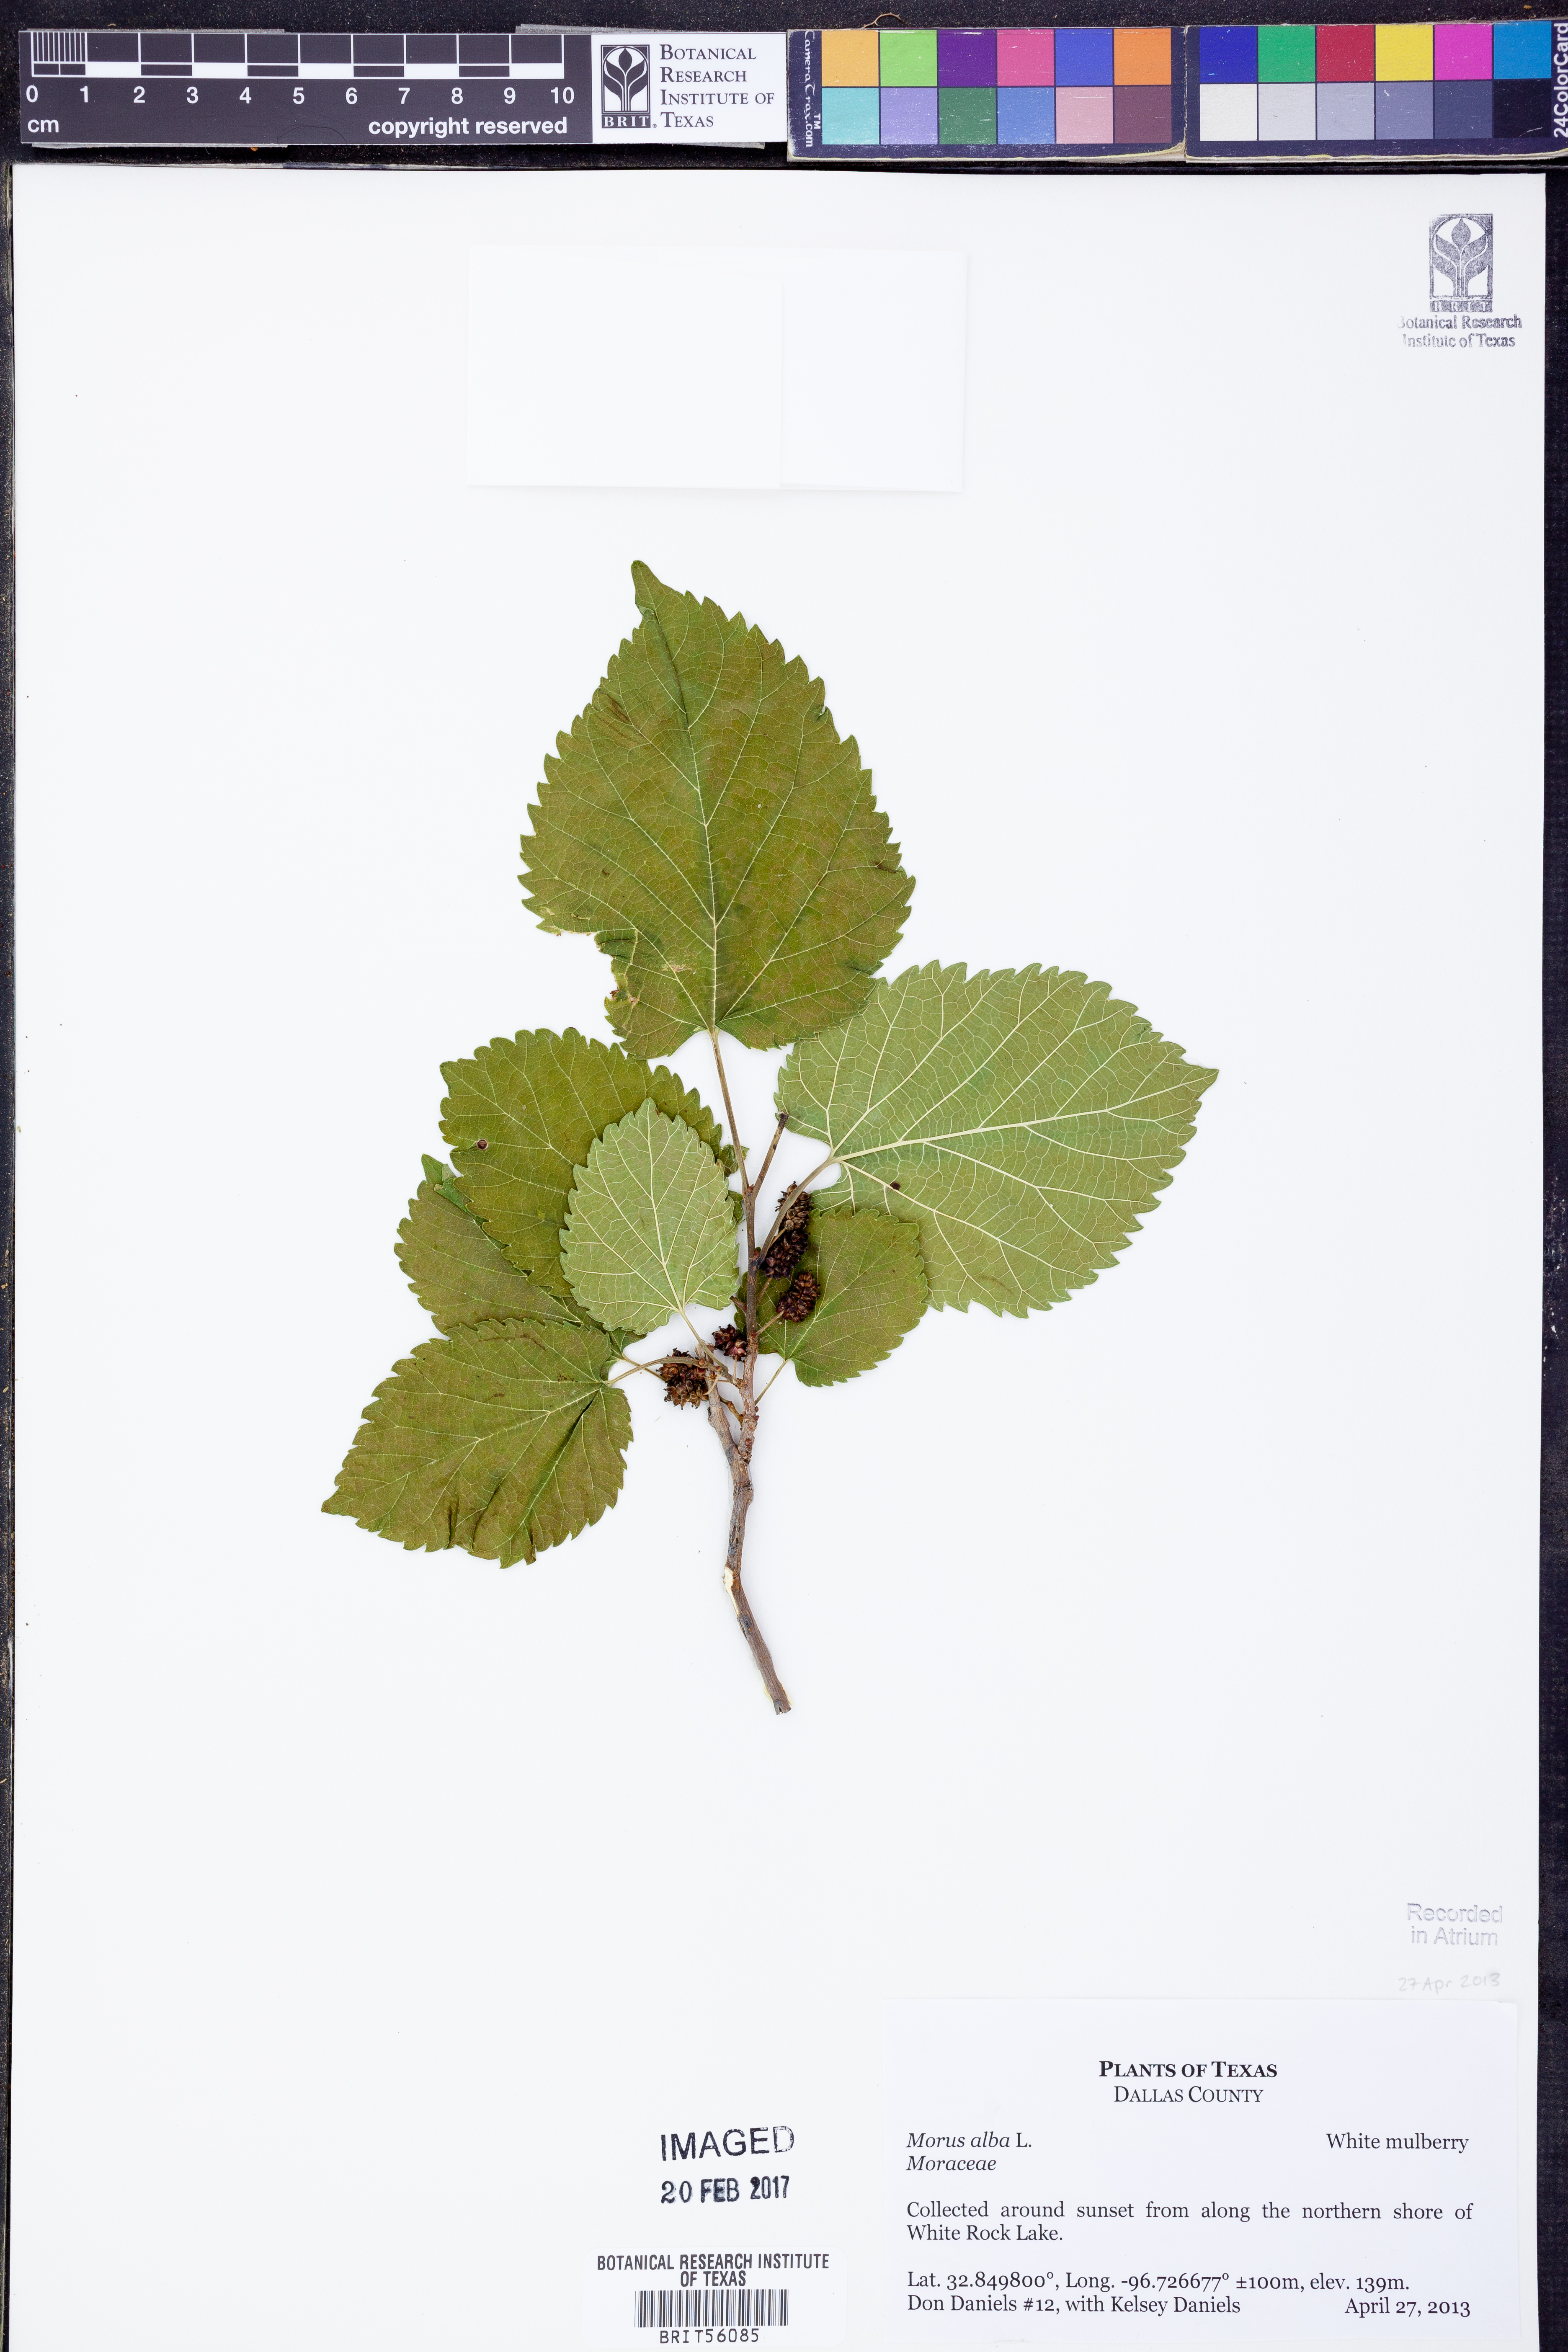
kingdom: Plantae
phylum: Tracheophyta
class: Magnoliopsida
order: Rosales
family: Moraceae
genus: Morus
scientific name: Morus alba
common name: White mulberry
